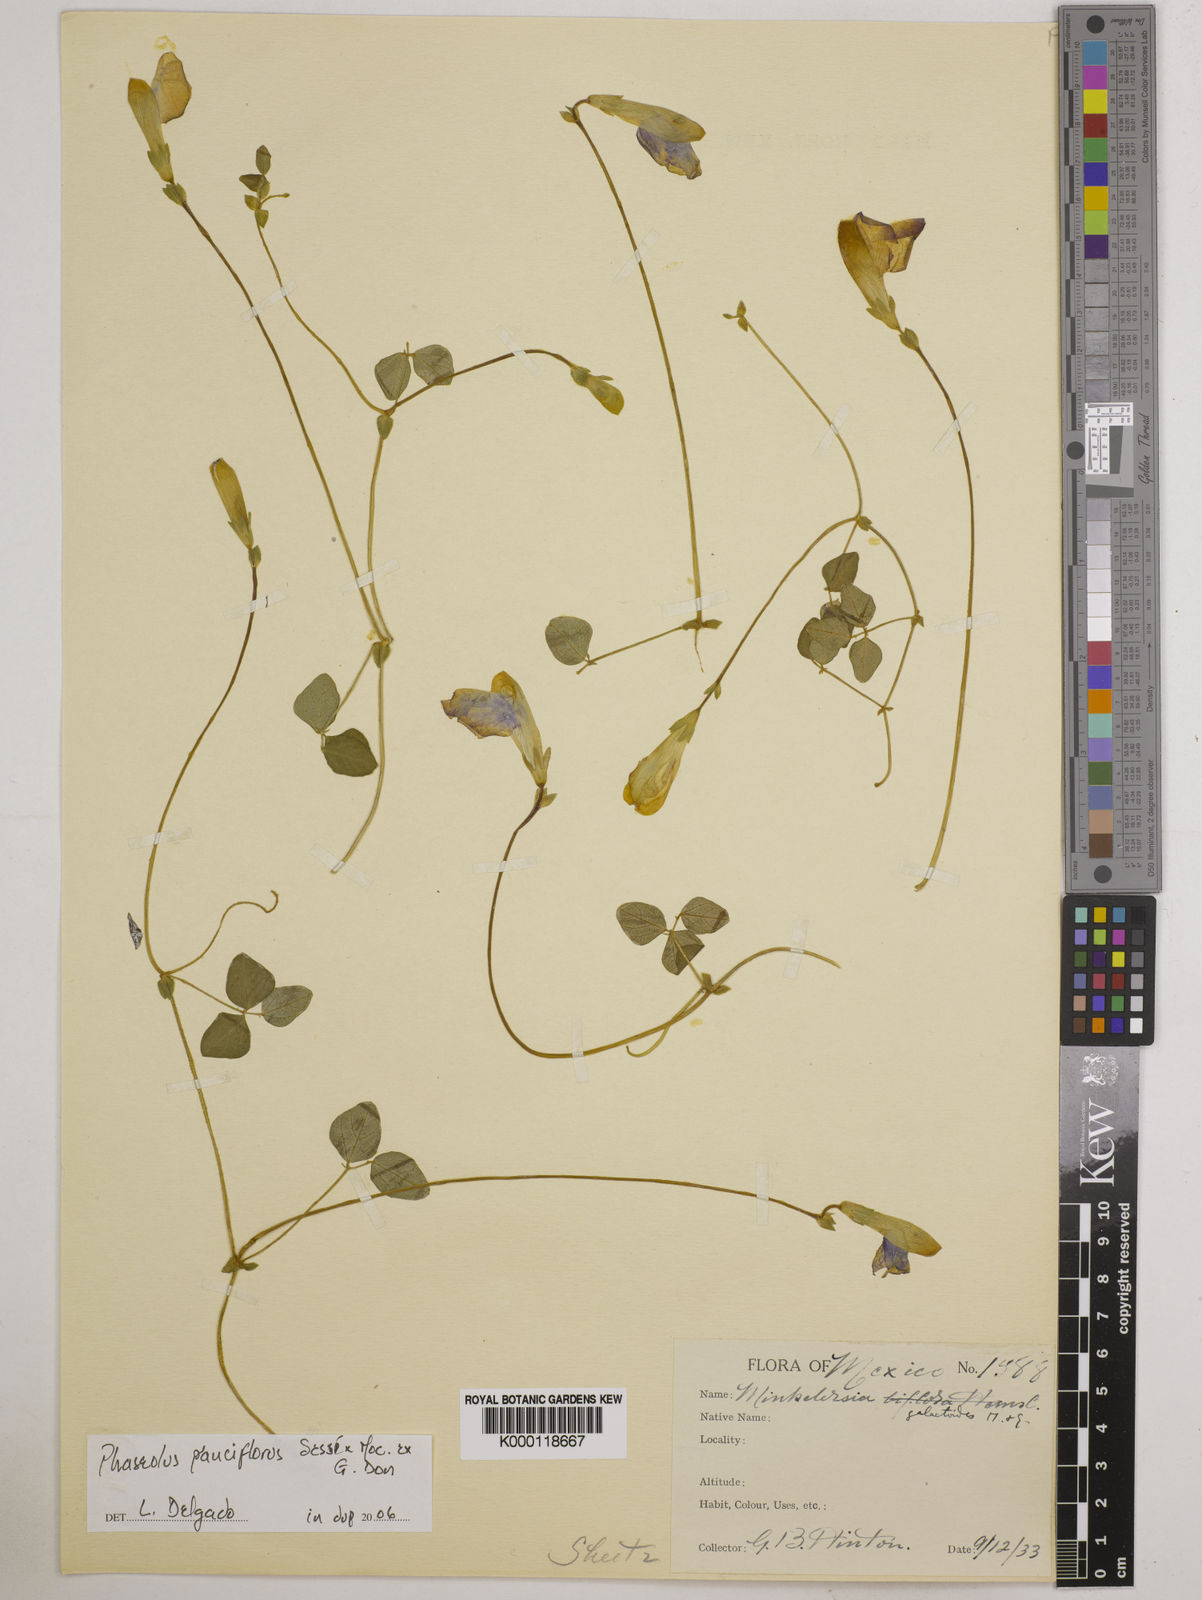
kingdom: Plantae
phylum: Tracheophyta
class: Magnoliopsida
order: Fabales
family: Fabaceae
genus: Phaseolus
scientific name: Phaseolus
